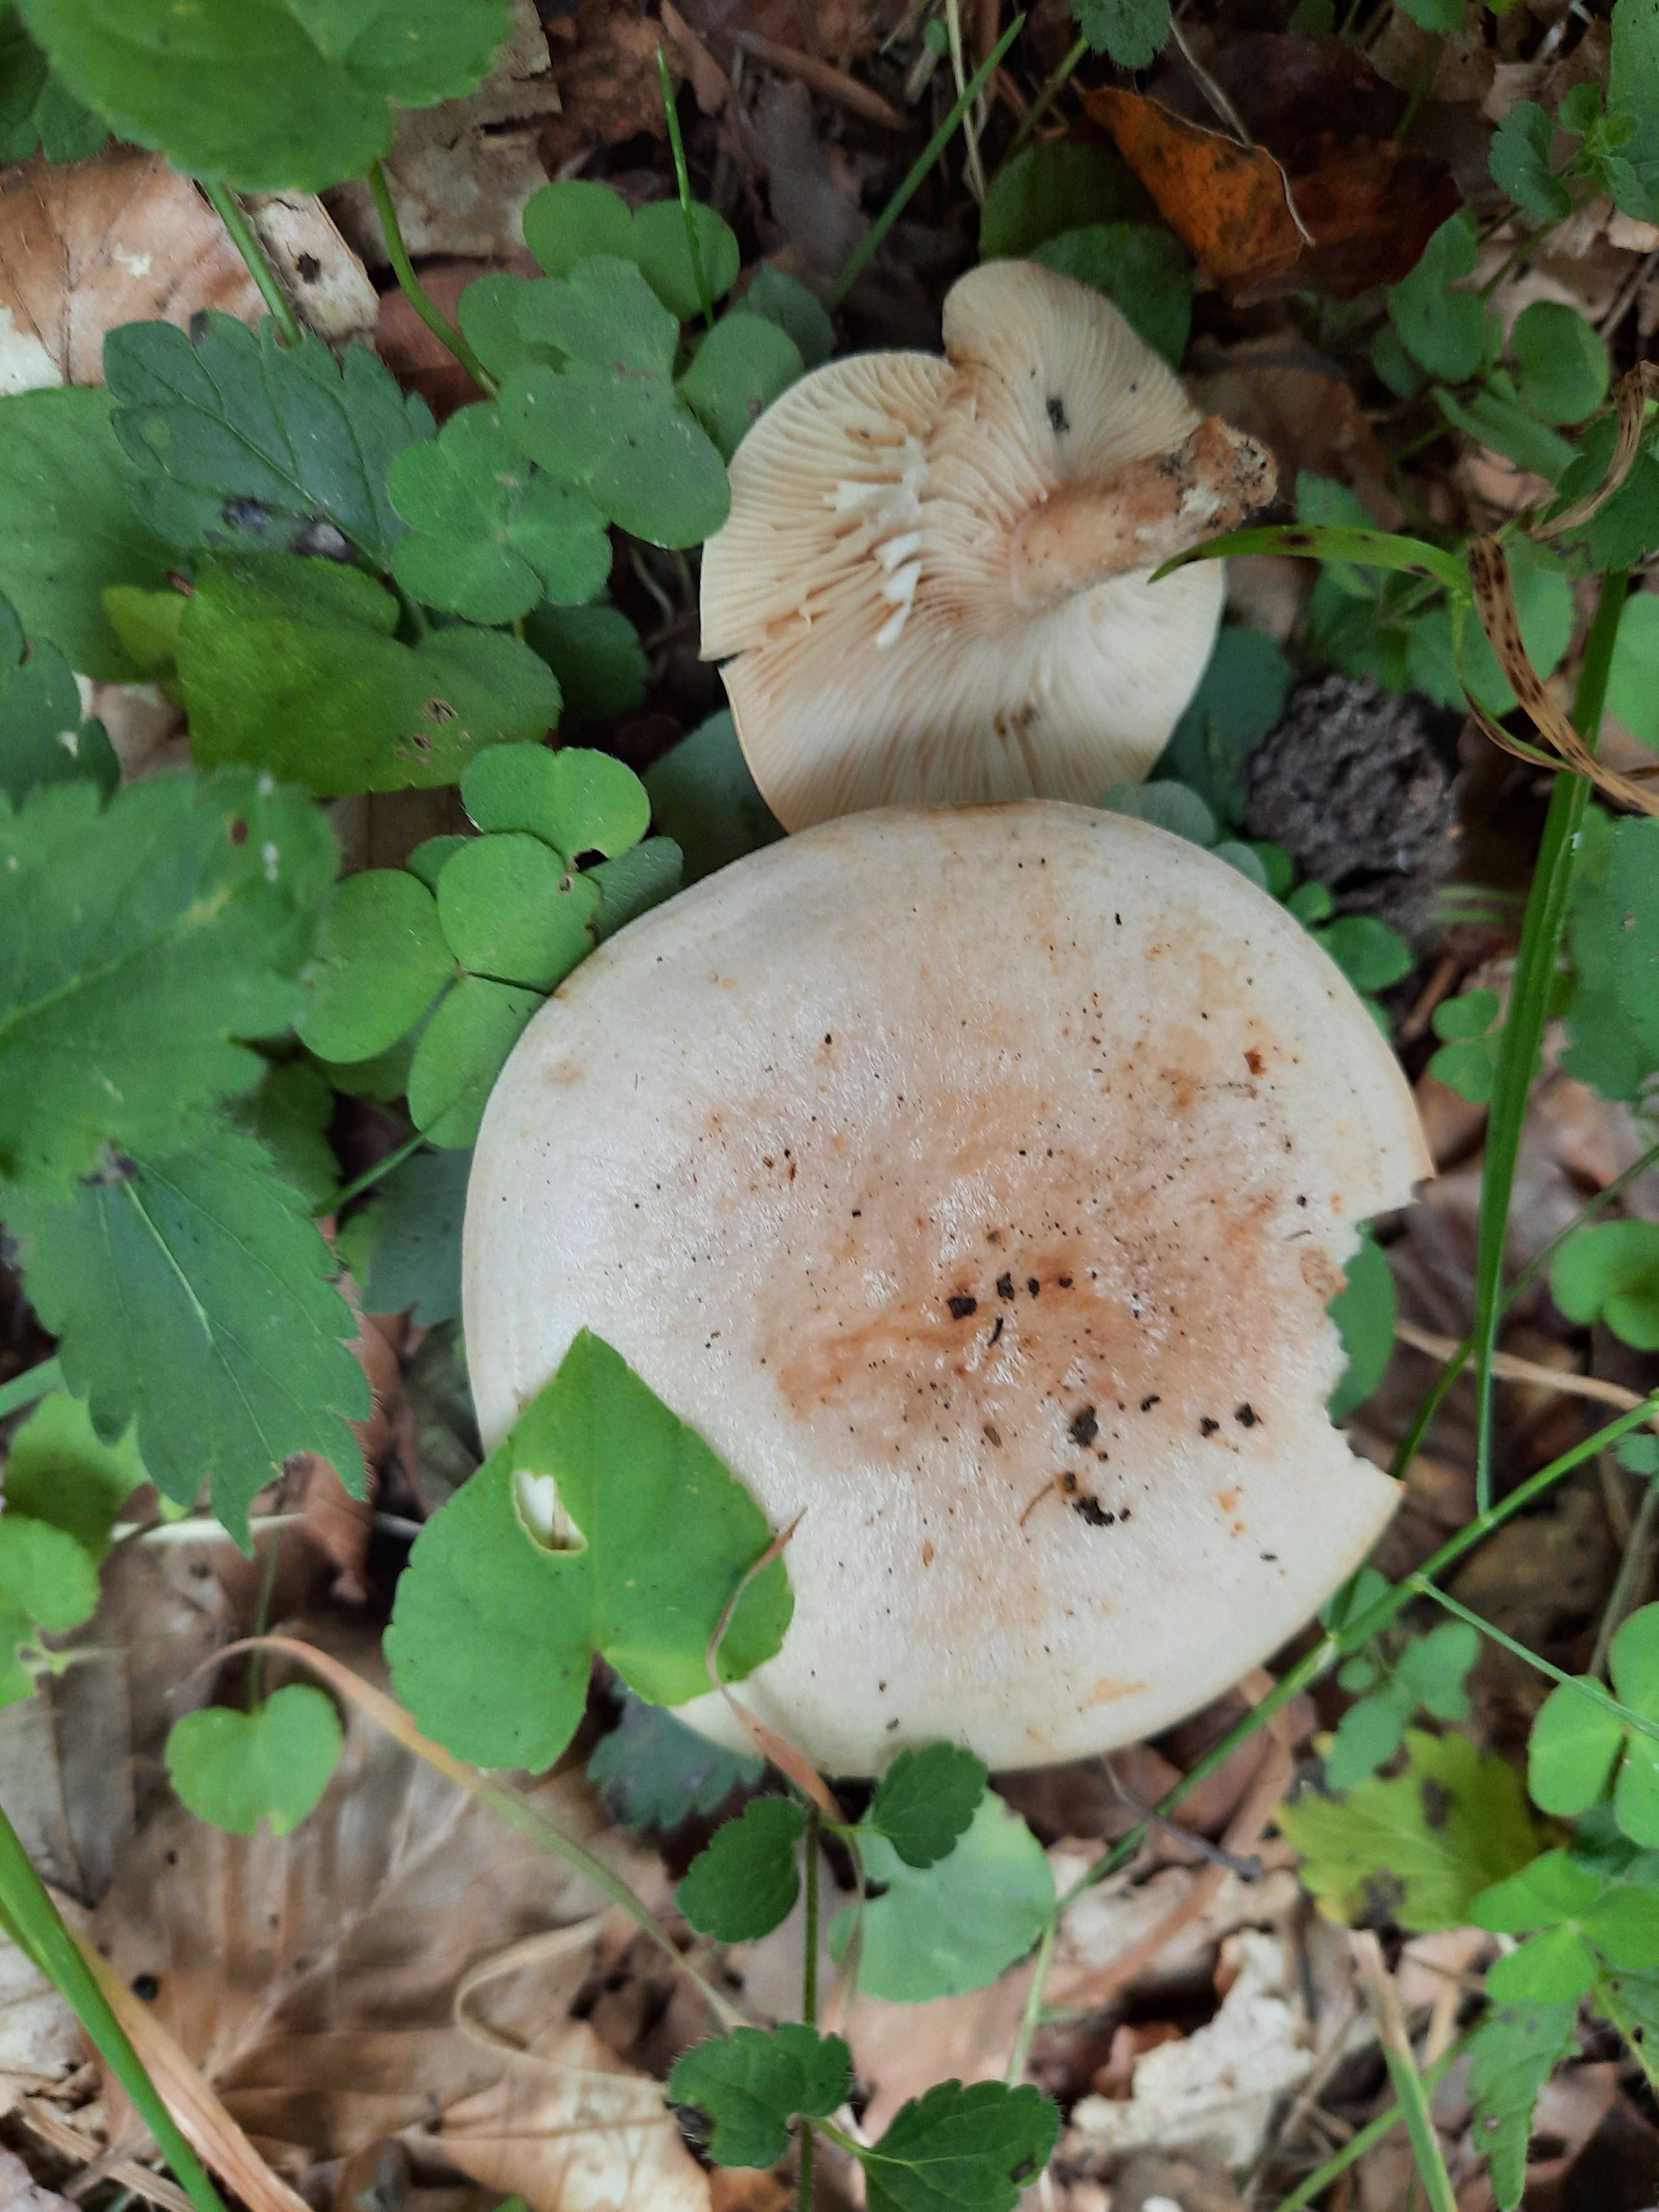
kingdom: Fungi
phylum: Basidiomycota
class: Agaricomycetes
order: Russulales
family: Russulaceae
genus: Lactarius
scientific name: Lactarius pallidus
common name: bleg mælkehat
